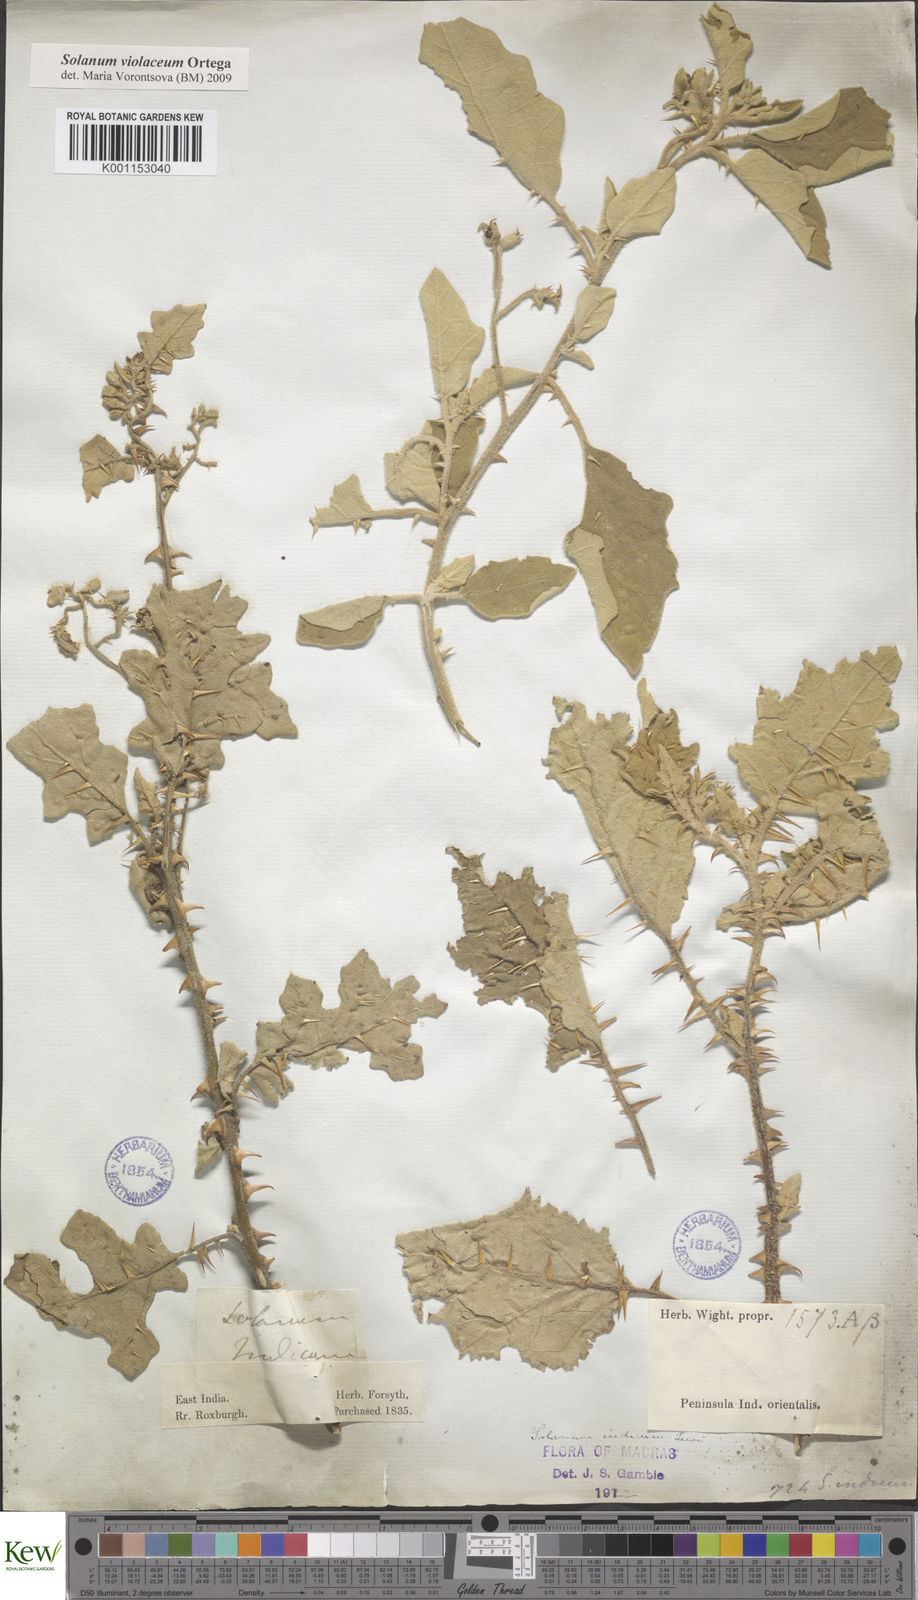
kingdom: Plantae
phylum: Tracheophyta
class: Magnoliopsida
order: Solanales
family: Solanaceae
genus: Solanum
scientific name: Solanum violaceum
